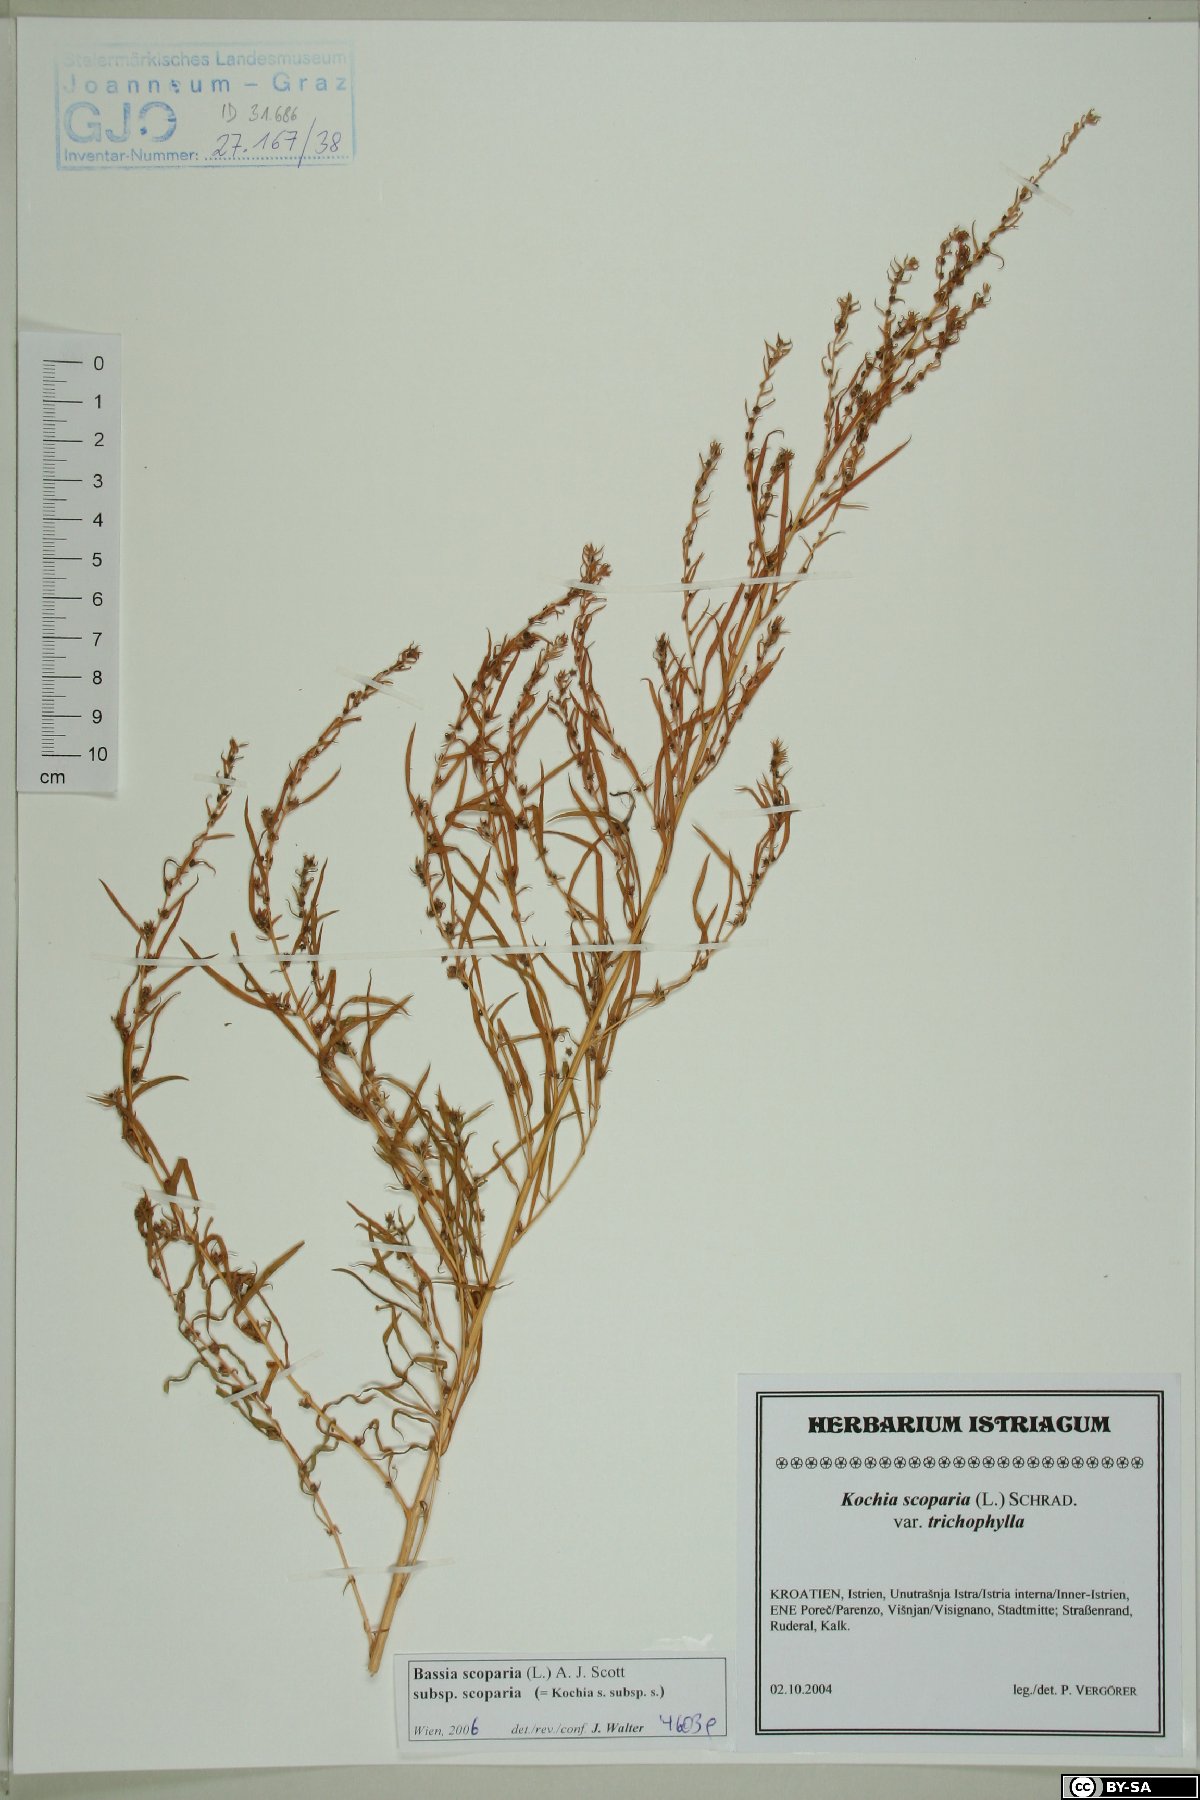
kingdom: Plantae
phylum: Tracheophyta
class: Magnoliopsida
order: Caryophyllales
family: Amaranthaceae
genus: Bassia
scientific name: Bassia scoparia
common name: Belvedere
